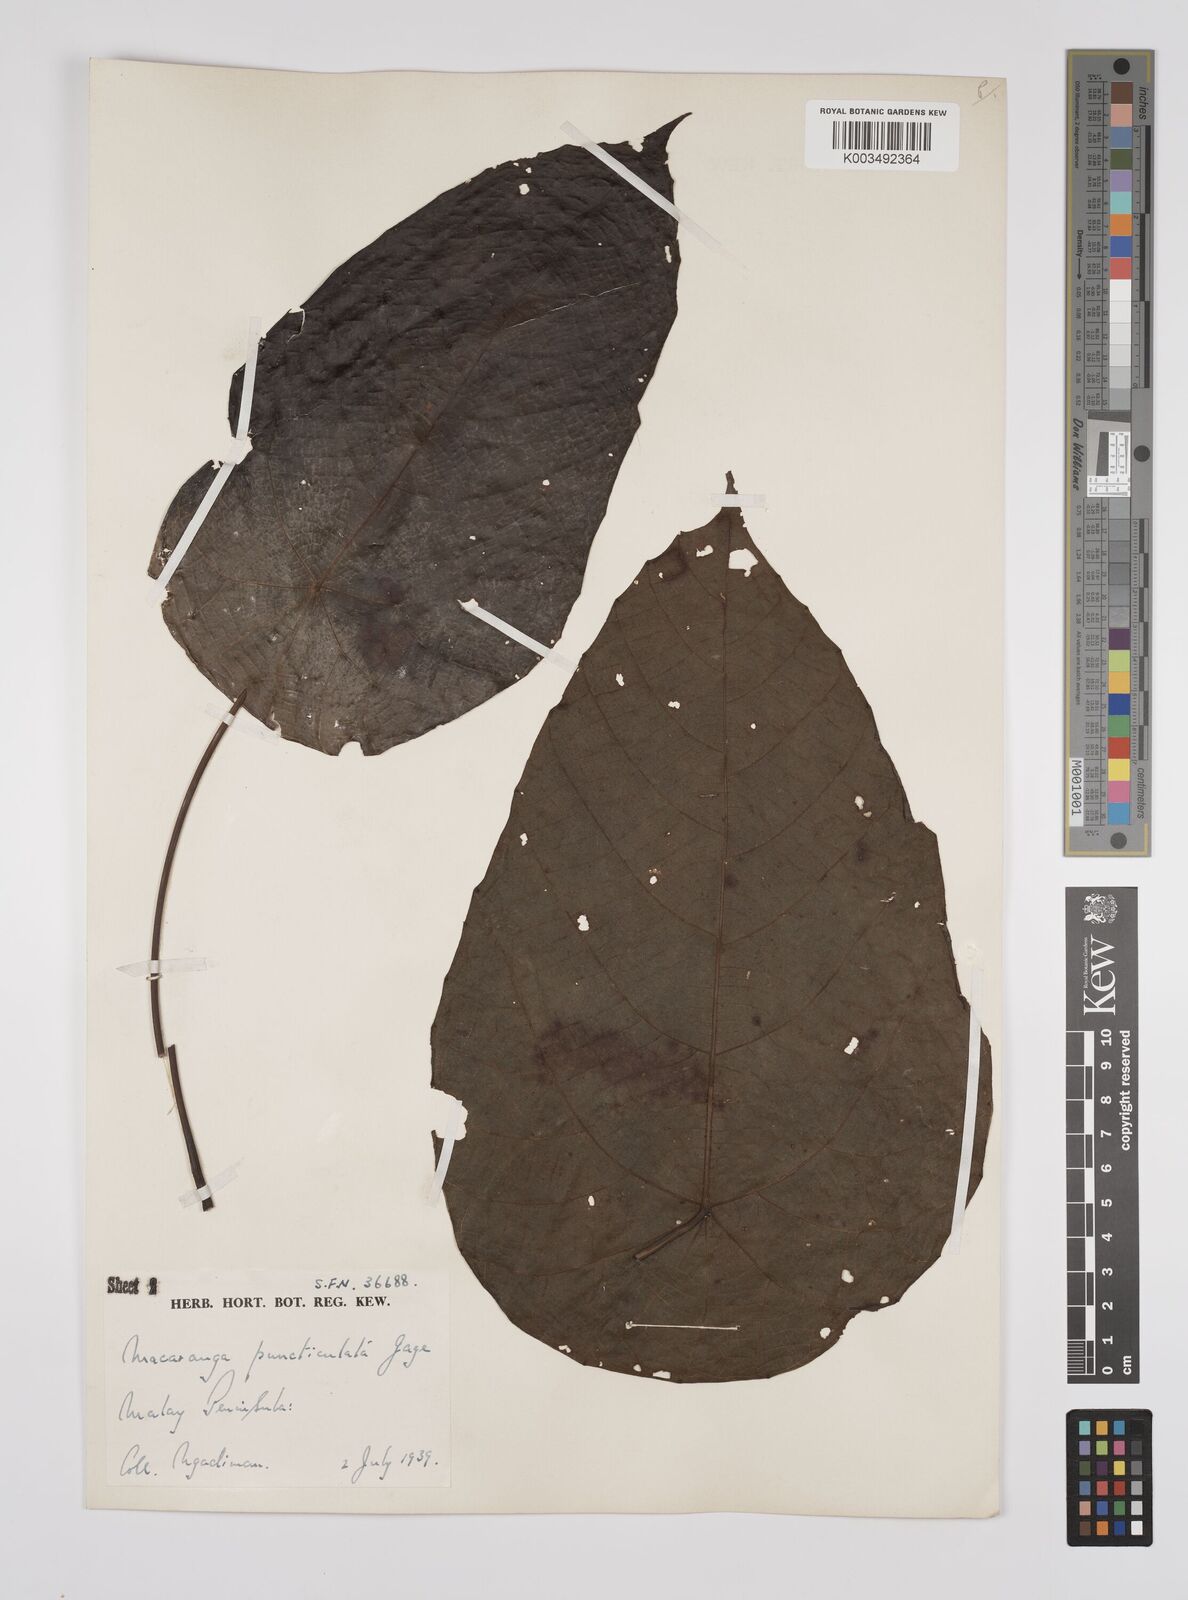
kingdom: Plantae
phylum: Tracheophyta
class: Magnoliopsida
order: Malpighiales
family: Euphorbiaceae
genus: Macaranga
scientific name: Macaranga puncticulata
